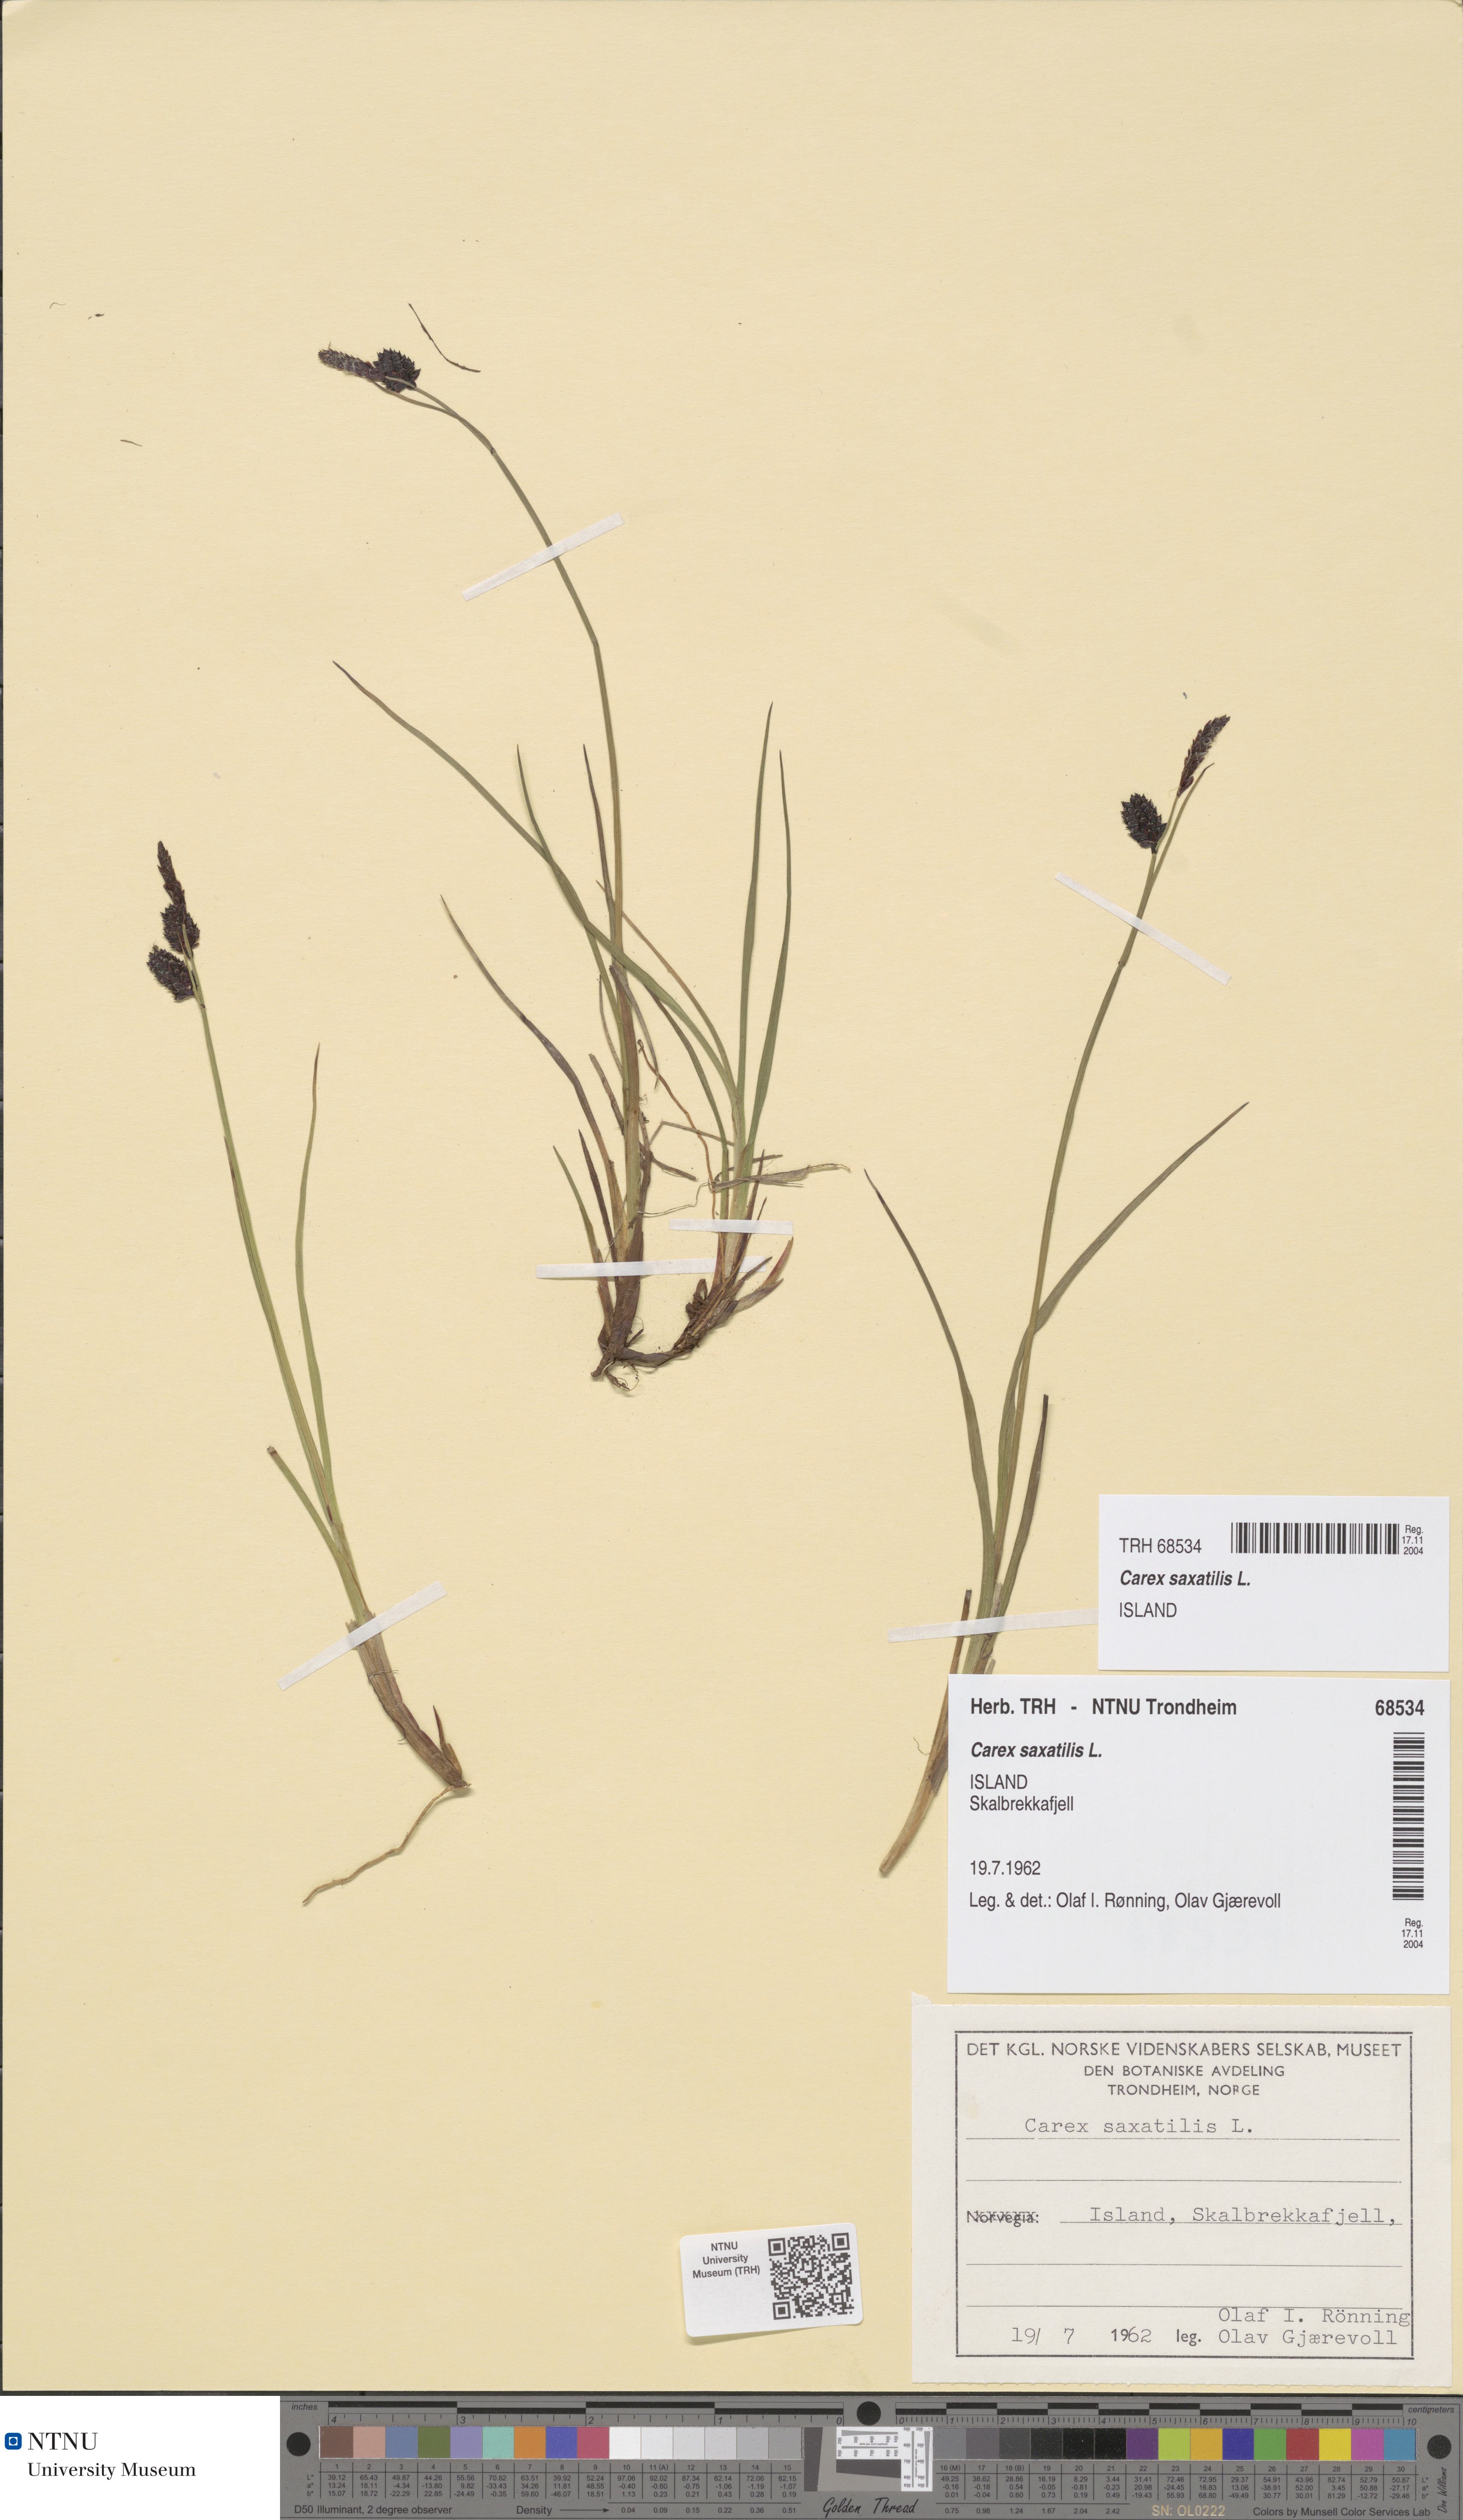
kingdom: Plantae
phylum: Tracheophyta
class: Liliopsida
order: Poales
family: Cyperaceae
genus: Carex
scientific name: Carex saxatilis
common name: Russet sedge
